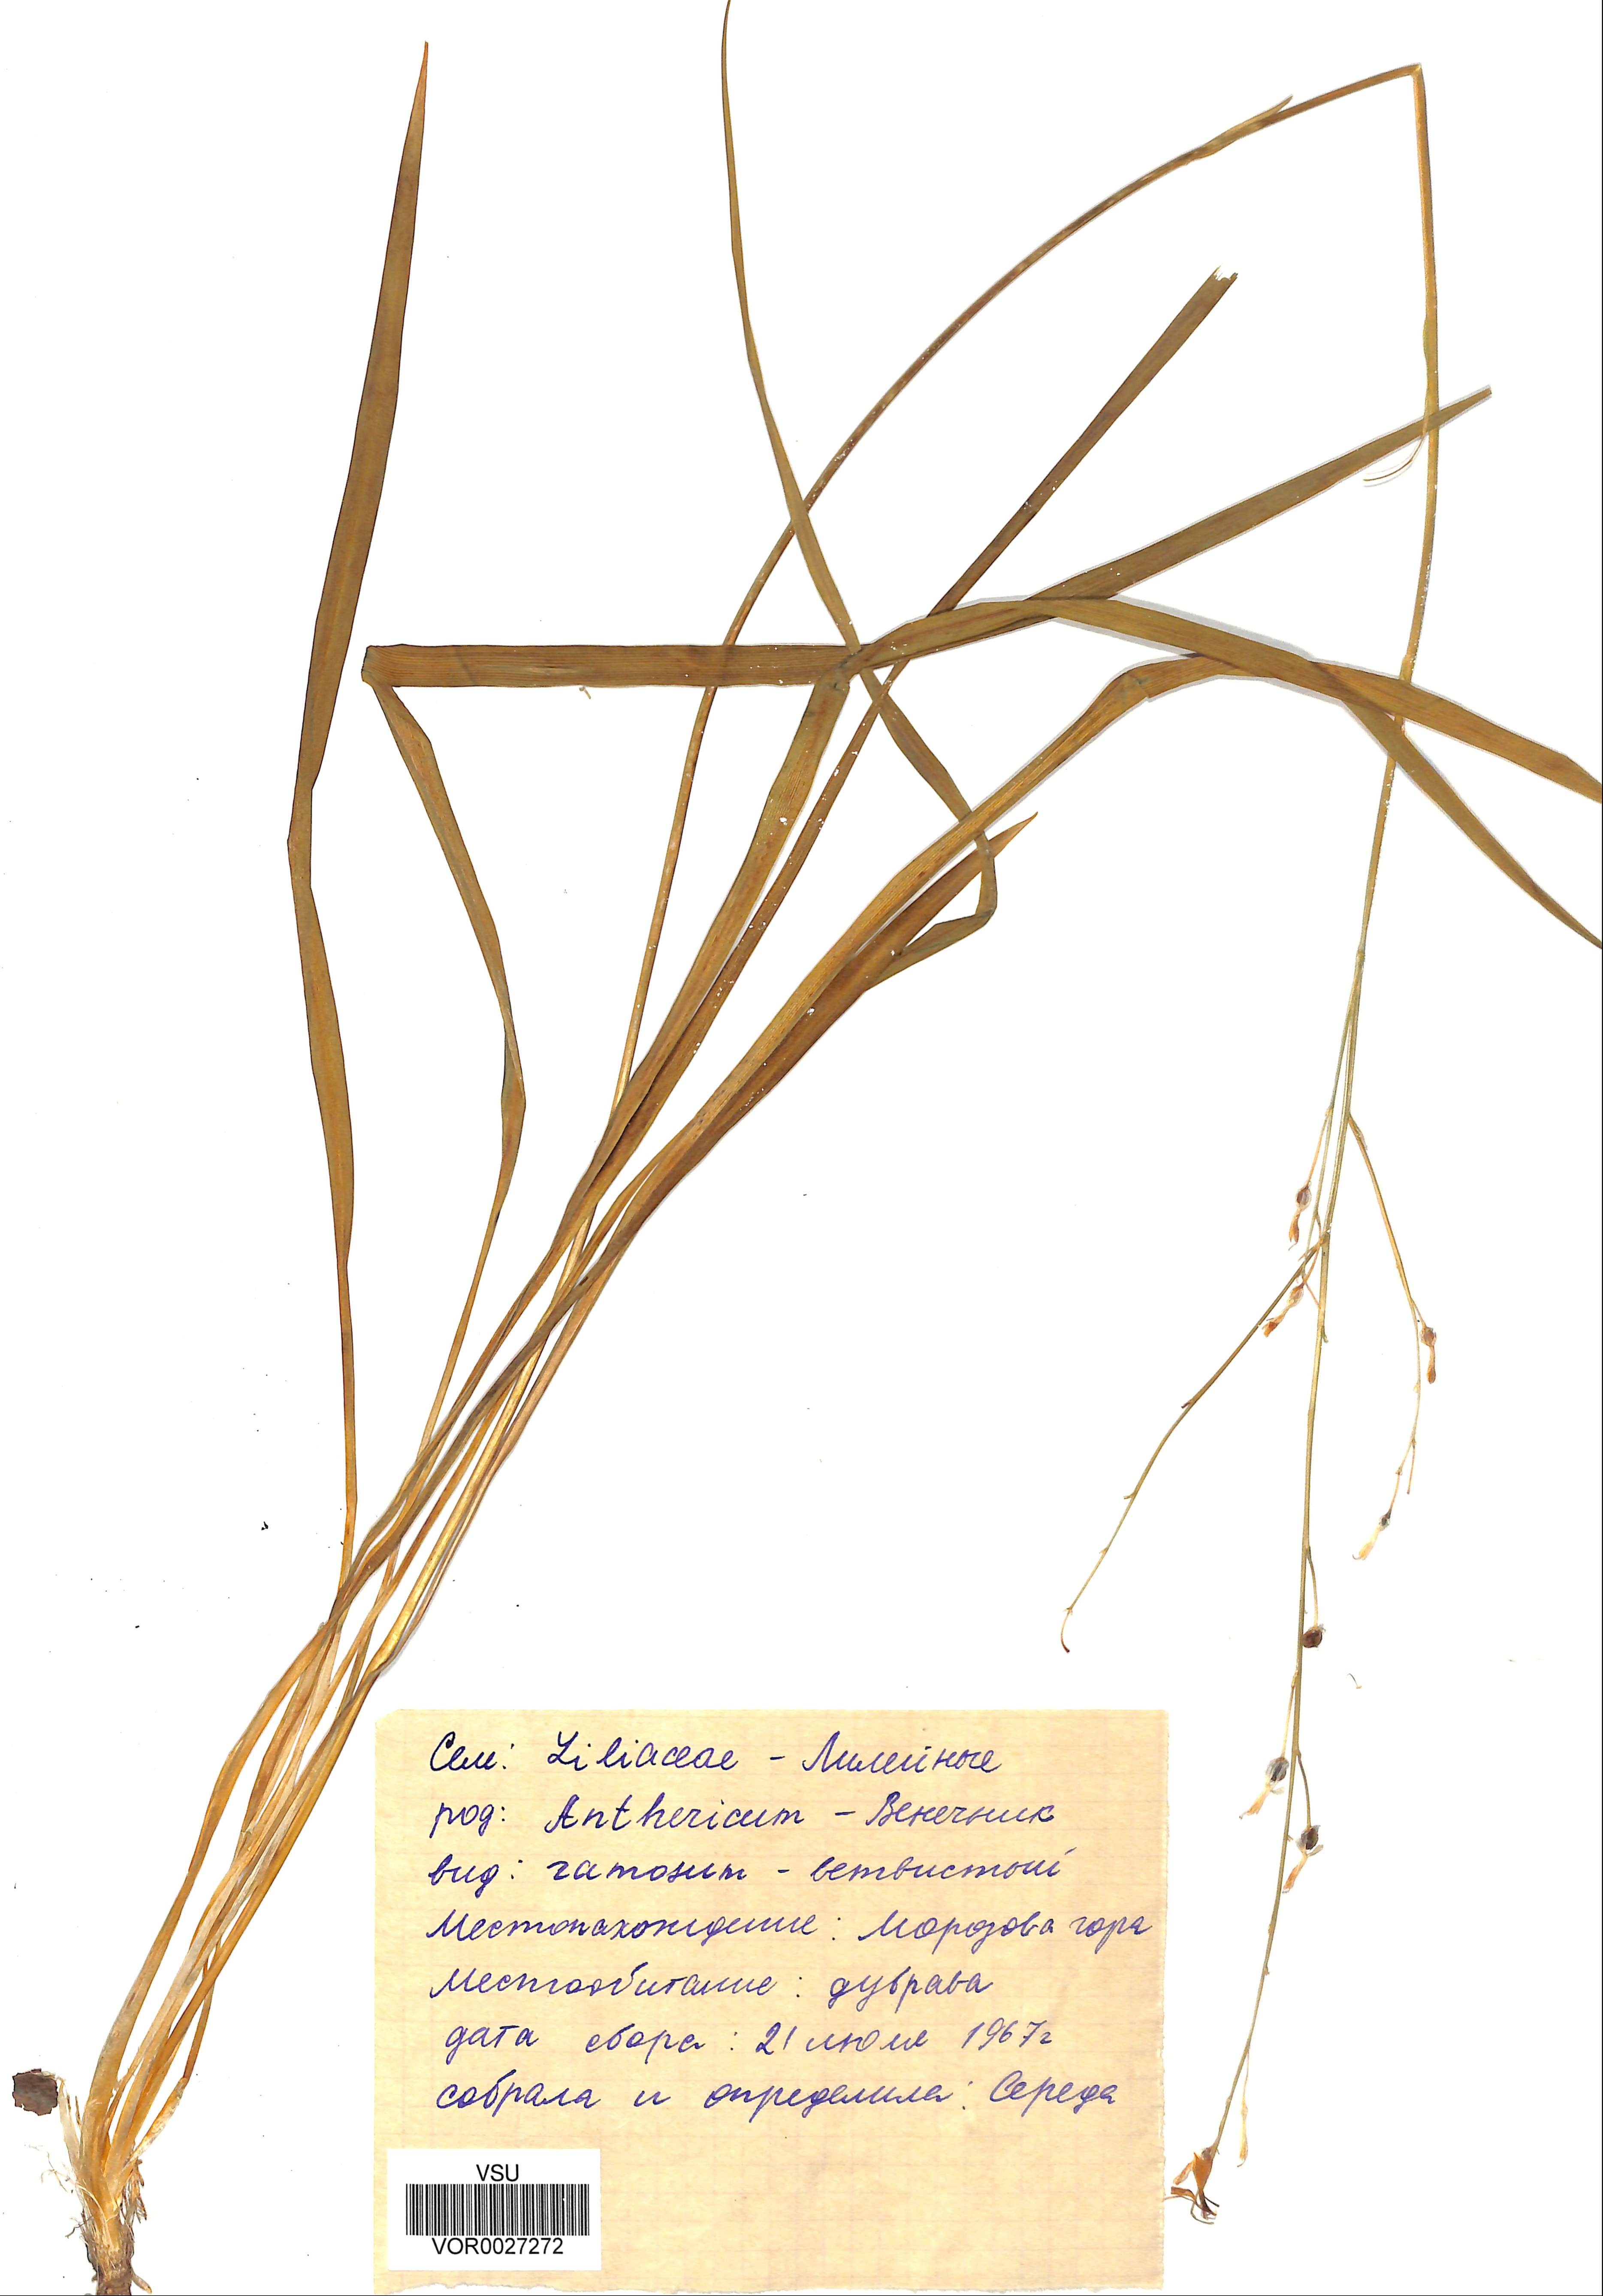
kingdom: Plantae
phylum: Tracheophyta
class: Liliopsida
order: Asparagales
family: Asparagaceae
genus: Anthericum
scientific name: Anthericum ramosum
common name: Branched st. bernard's-lily
